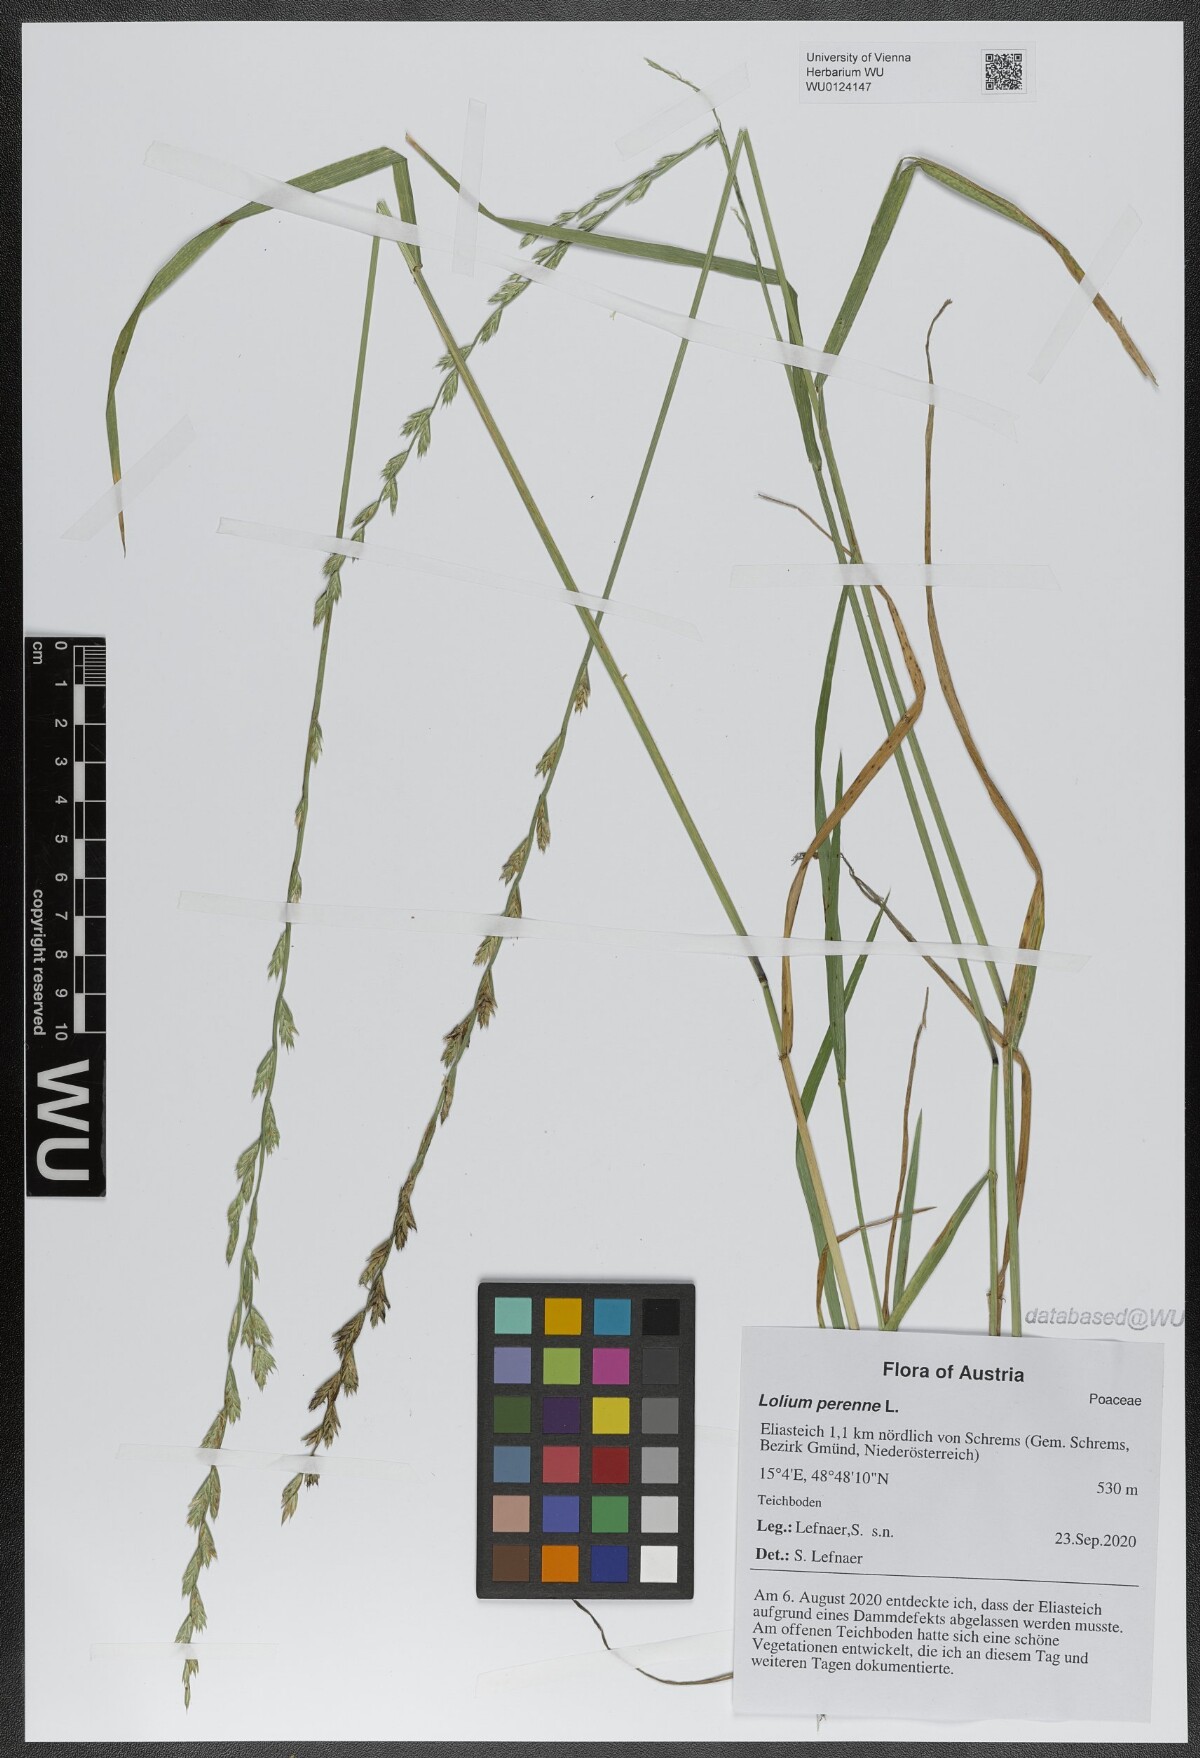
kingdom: Plantae
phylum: Tracheophyta
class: Liliopsida
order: Poales
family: Poaceae
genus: Lolium
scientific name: Lolium perenne
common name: Perennial ryegrass
